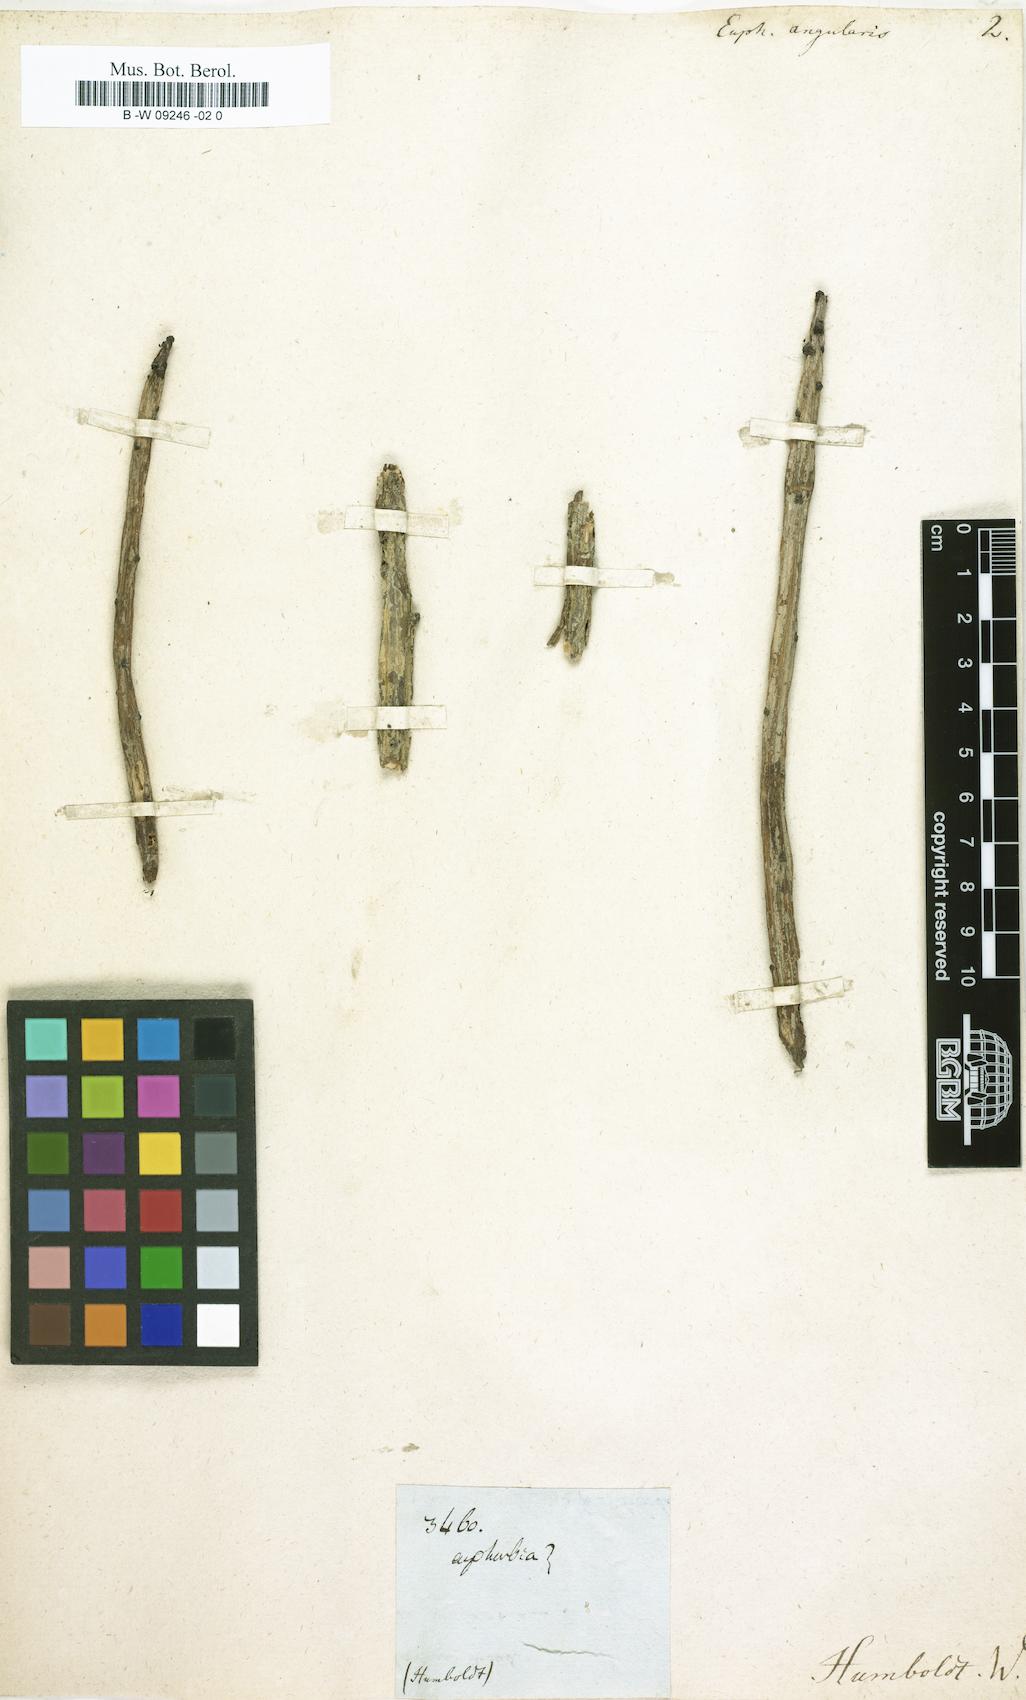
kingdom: Plantae
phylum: Tracheophyta
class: Magnoliopsida
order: Malpighiales
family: Euphorbiaceae
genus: Euphorbia
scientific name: Euphorbia angularis
